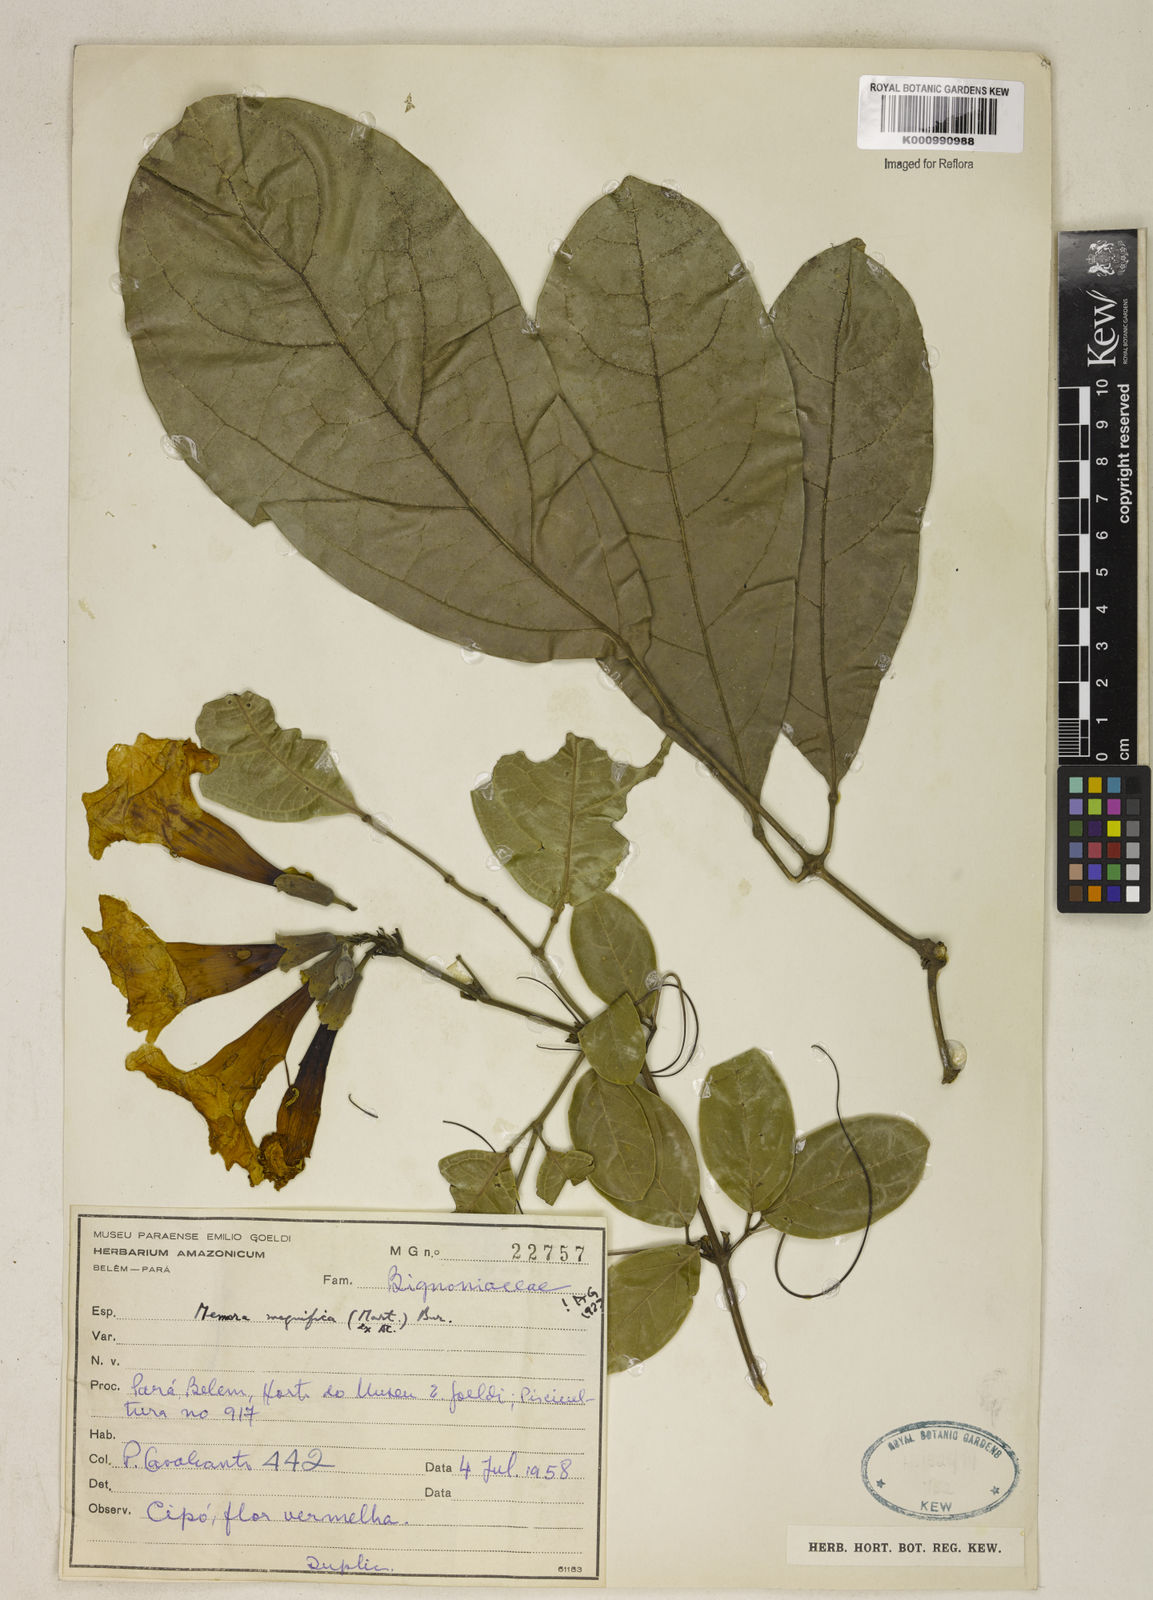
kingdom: Plantae
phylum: Tracheophyta
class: Magnoliopsida
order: Lamiales
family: Bignoniaceae
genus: Adenocalymma
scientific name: Adenocalymma magnificum
